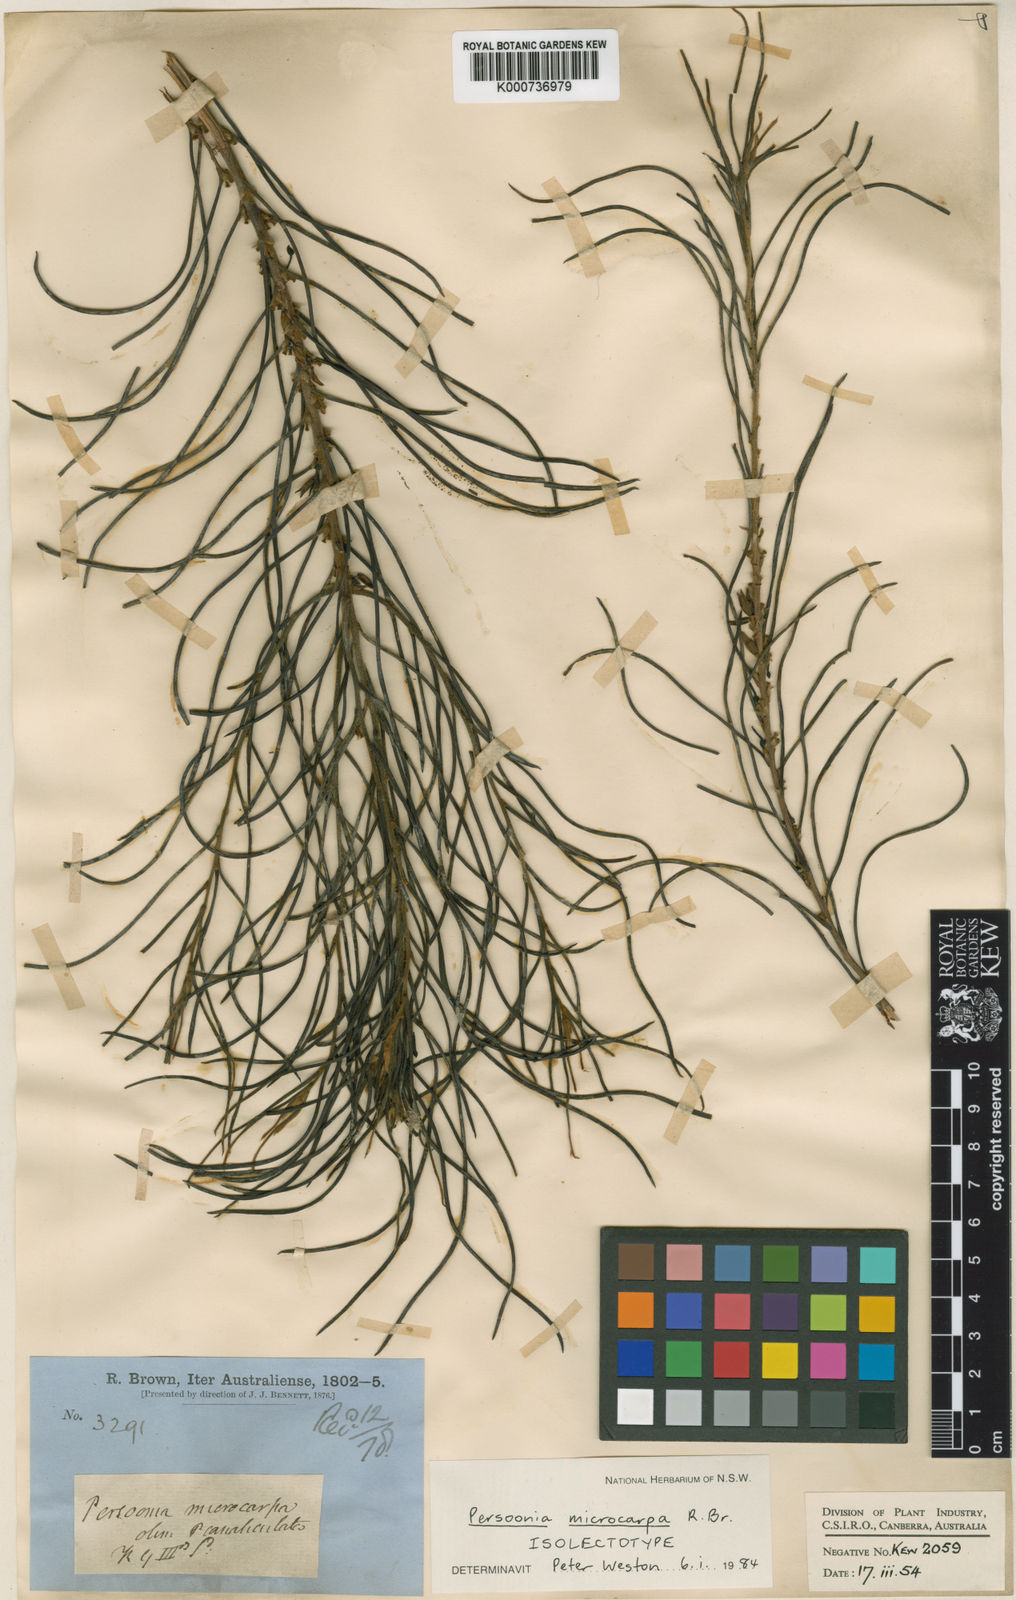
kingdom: Plantae
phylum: Tracheophyta
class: Magnoliopsida
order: Proteales
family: Proteaceae
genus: Acidonia
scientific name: Acidonia microcarpa
